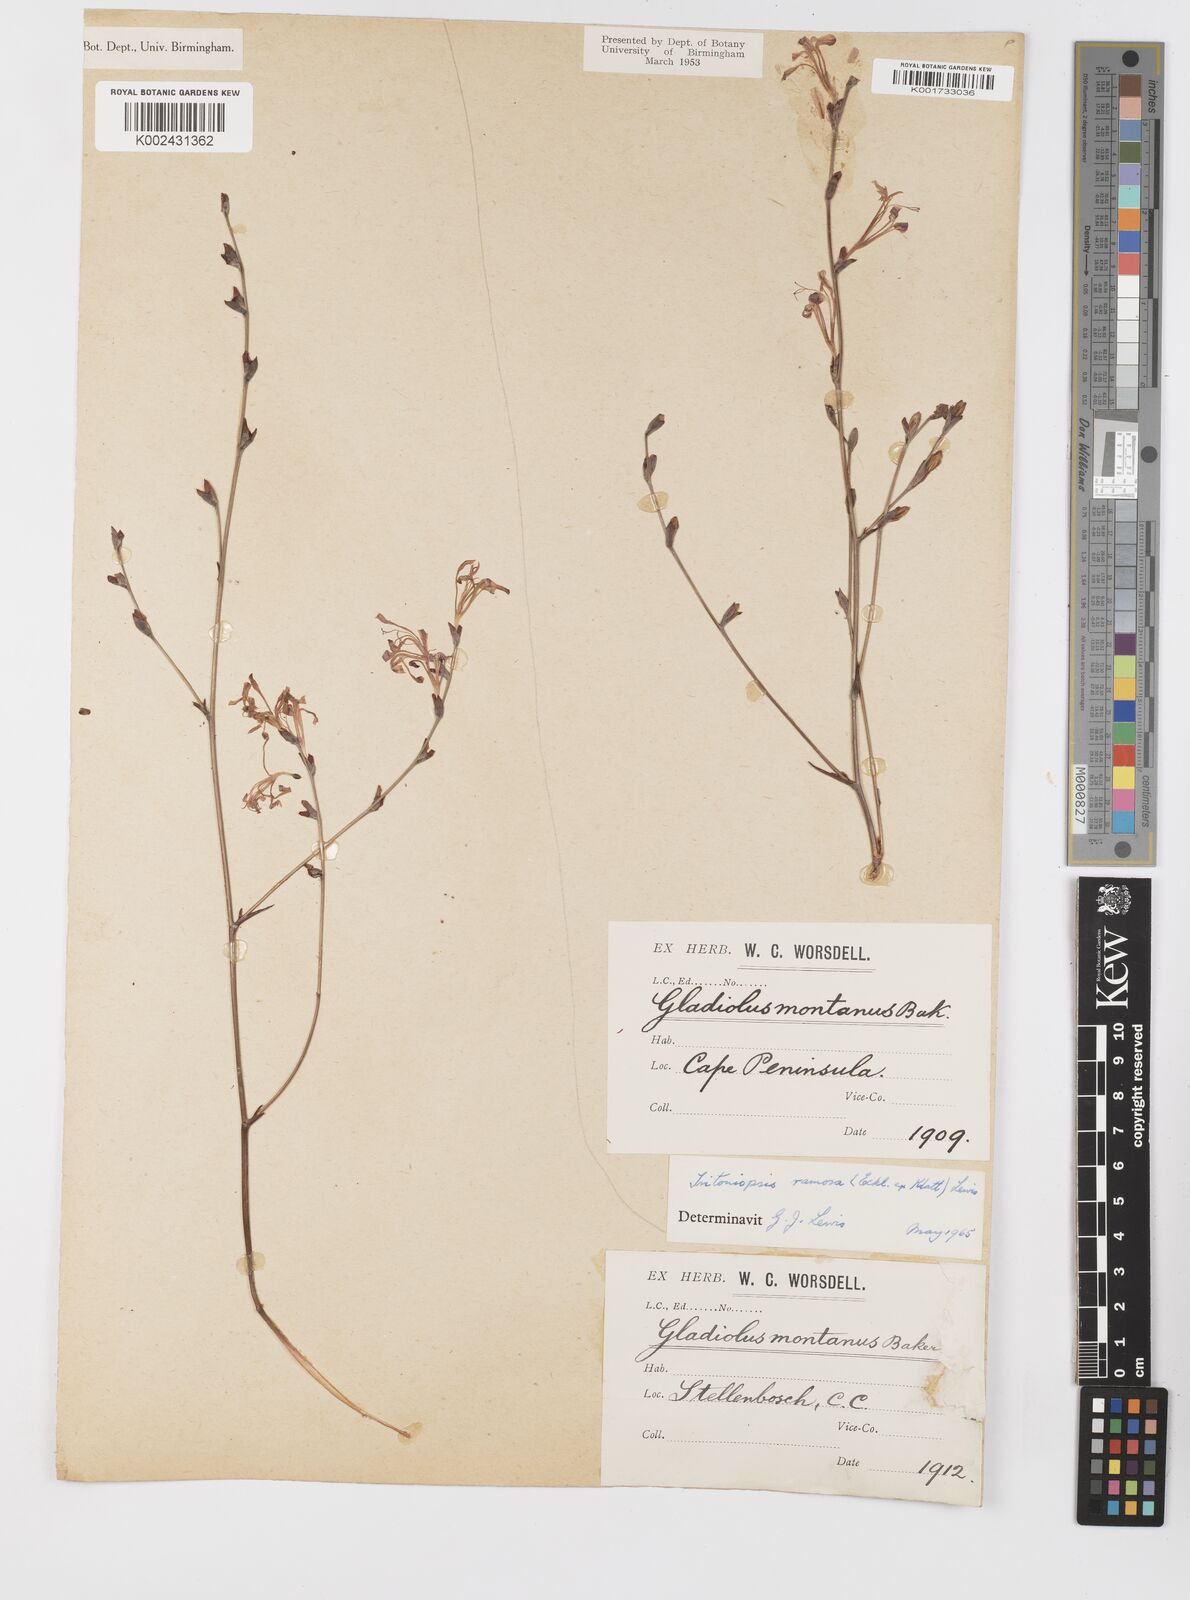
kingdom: Plantae
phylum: Tracheophyta
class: Liliopsida
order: Asparagales
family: Iridaceae
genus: Tritoniopsis
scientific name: Tritoniopsis ramosa
